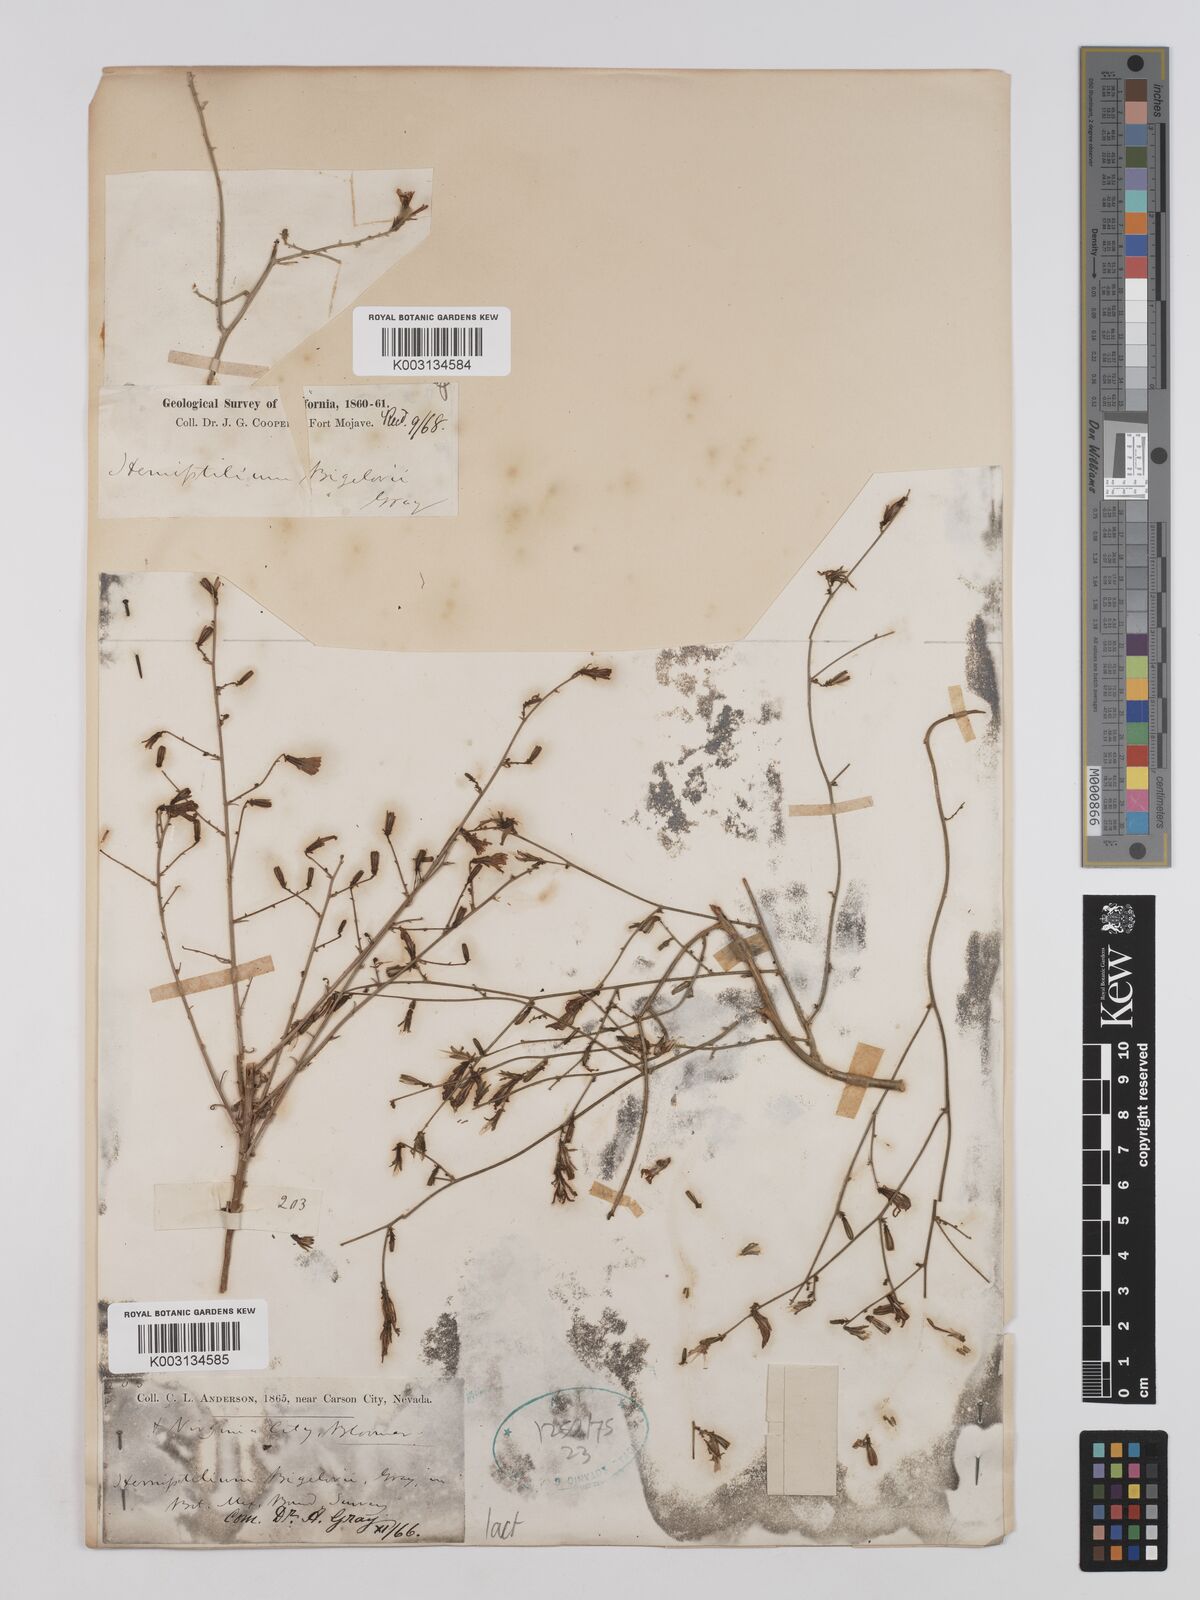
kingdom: Plantae
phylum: Tracheophyta
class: Magnoliopsida
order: Asterales
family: Asteraceae
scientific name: Asteraceae
